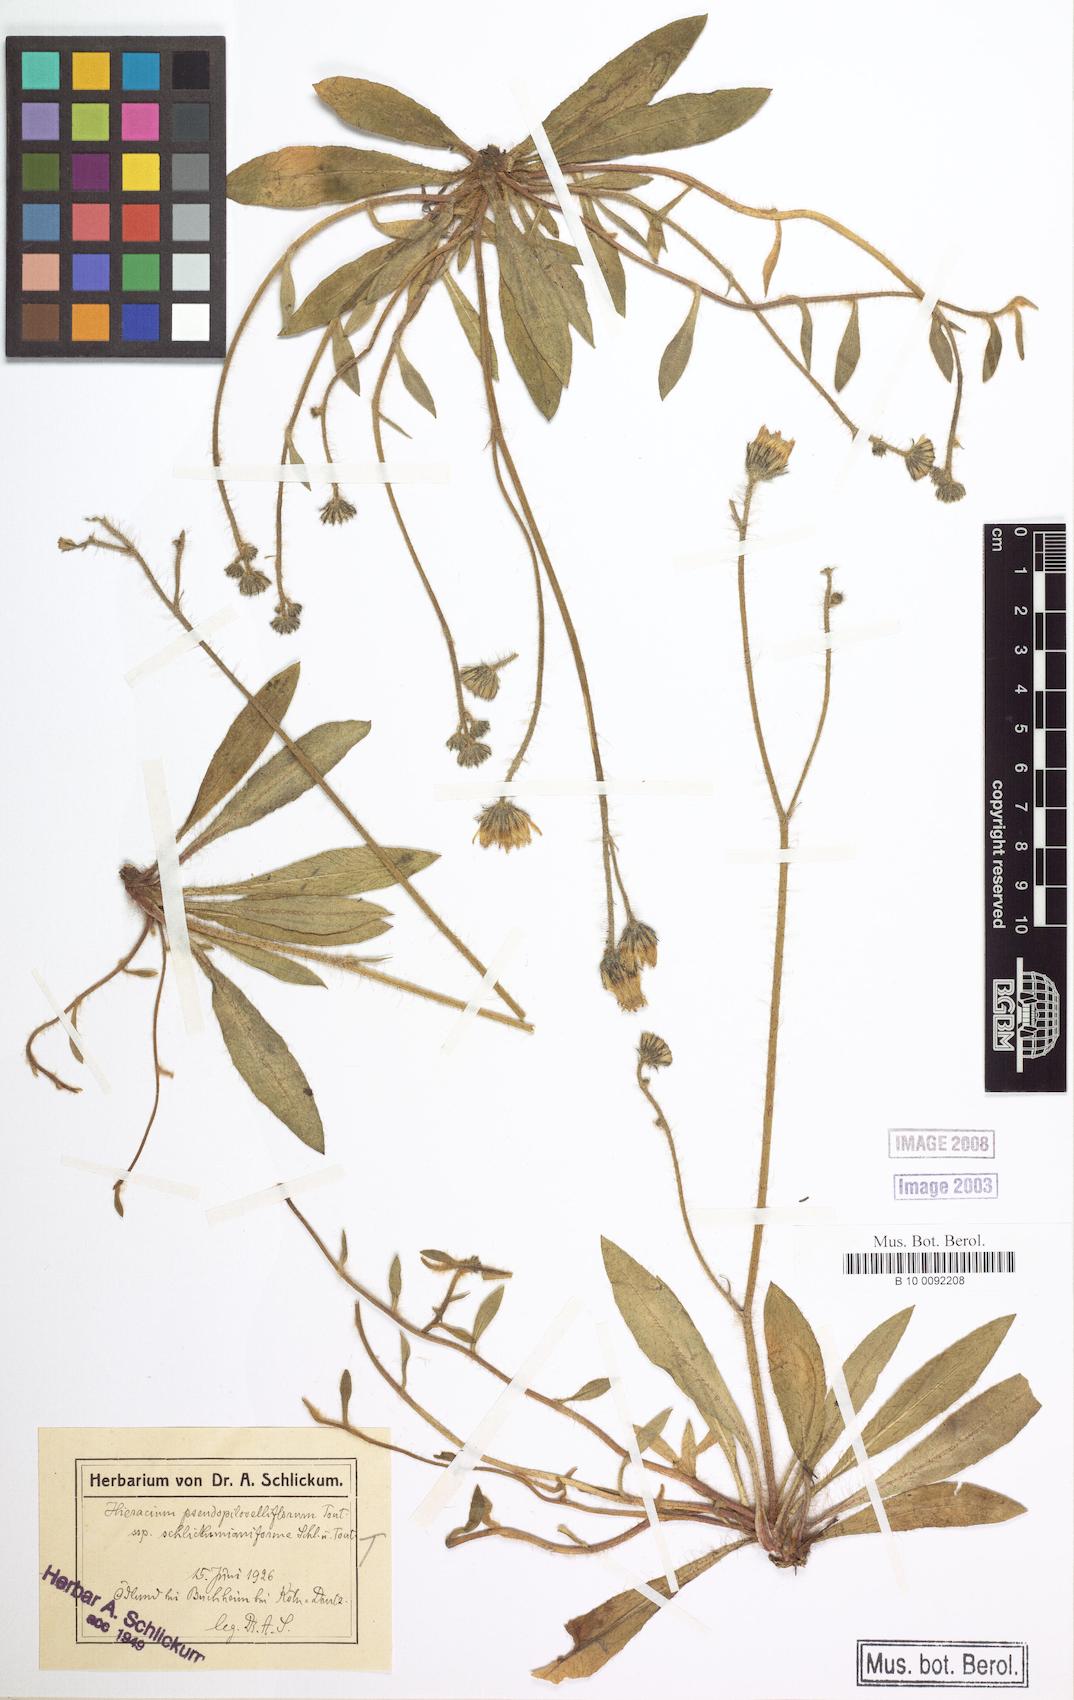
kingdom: Plantae
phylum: Tracheophyta
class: Magnoliopsida
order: Asterales
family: Asteraceae
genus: Pilosella
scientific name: Pilosella piloselliflora
